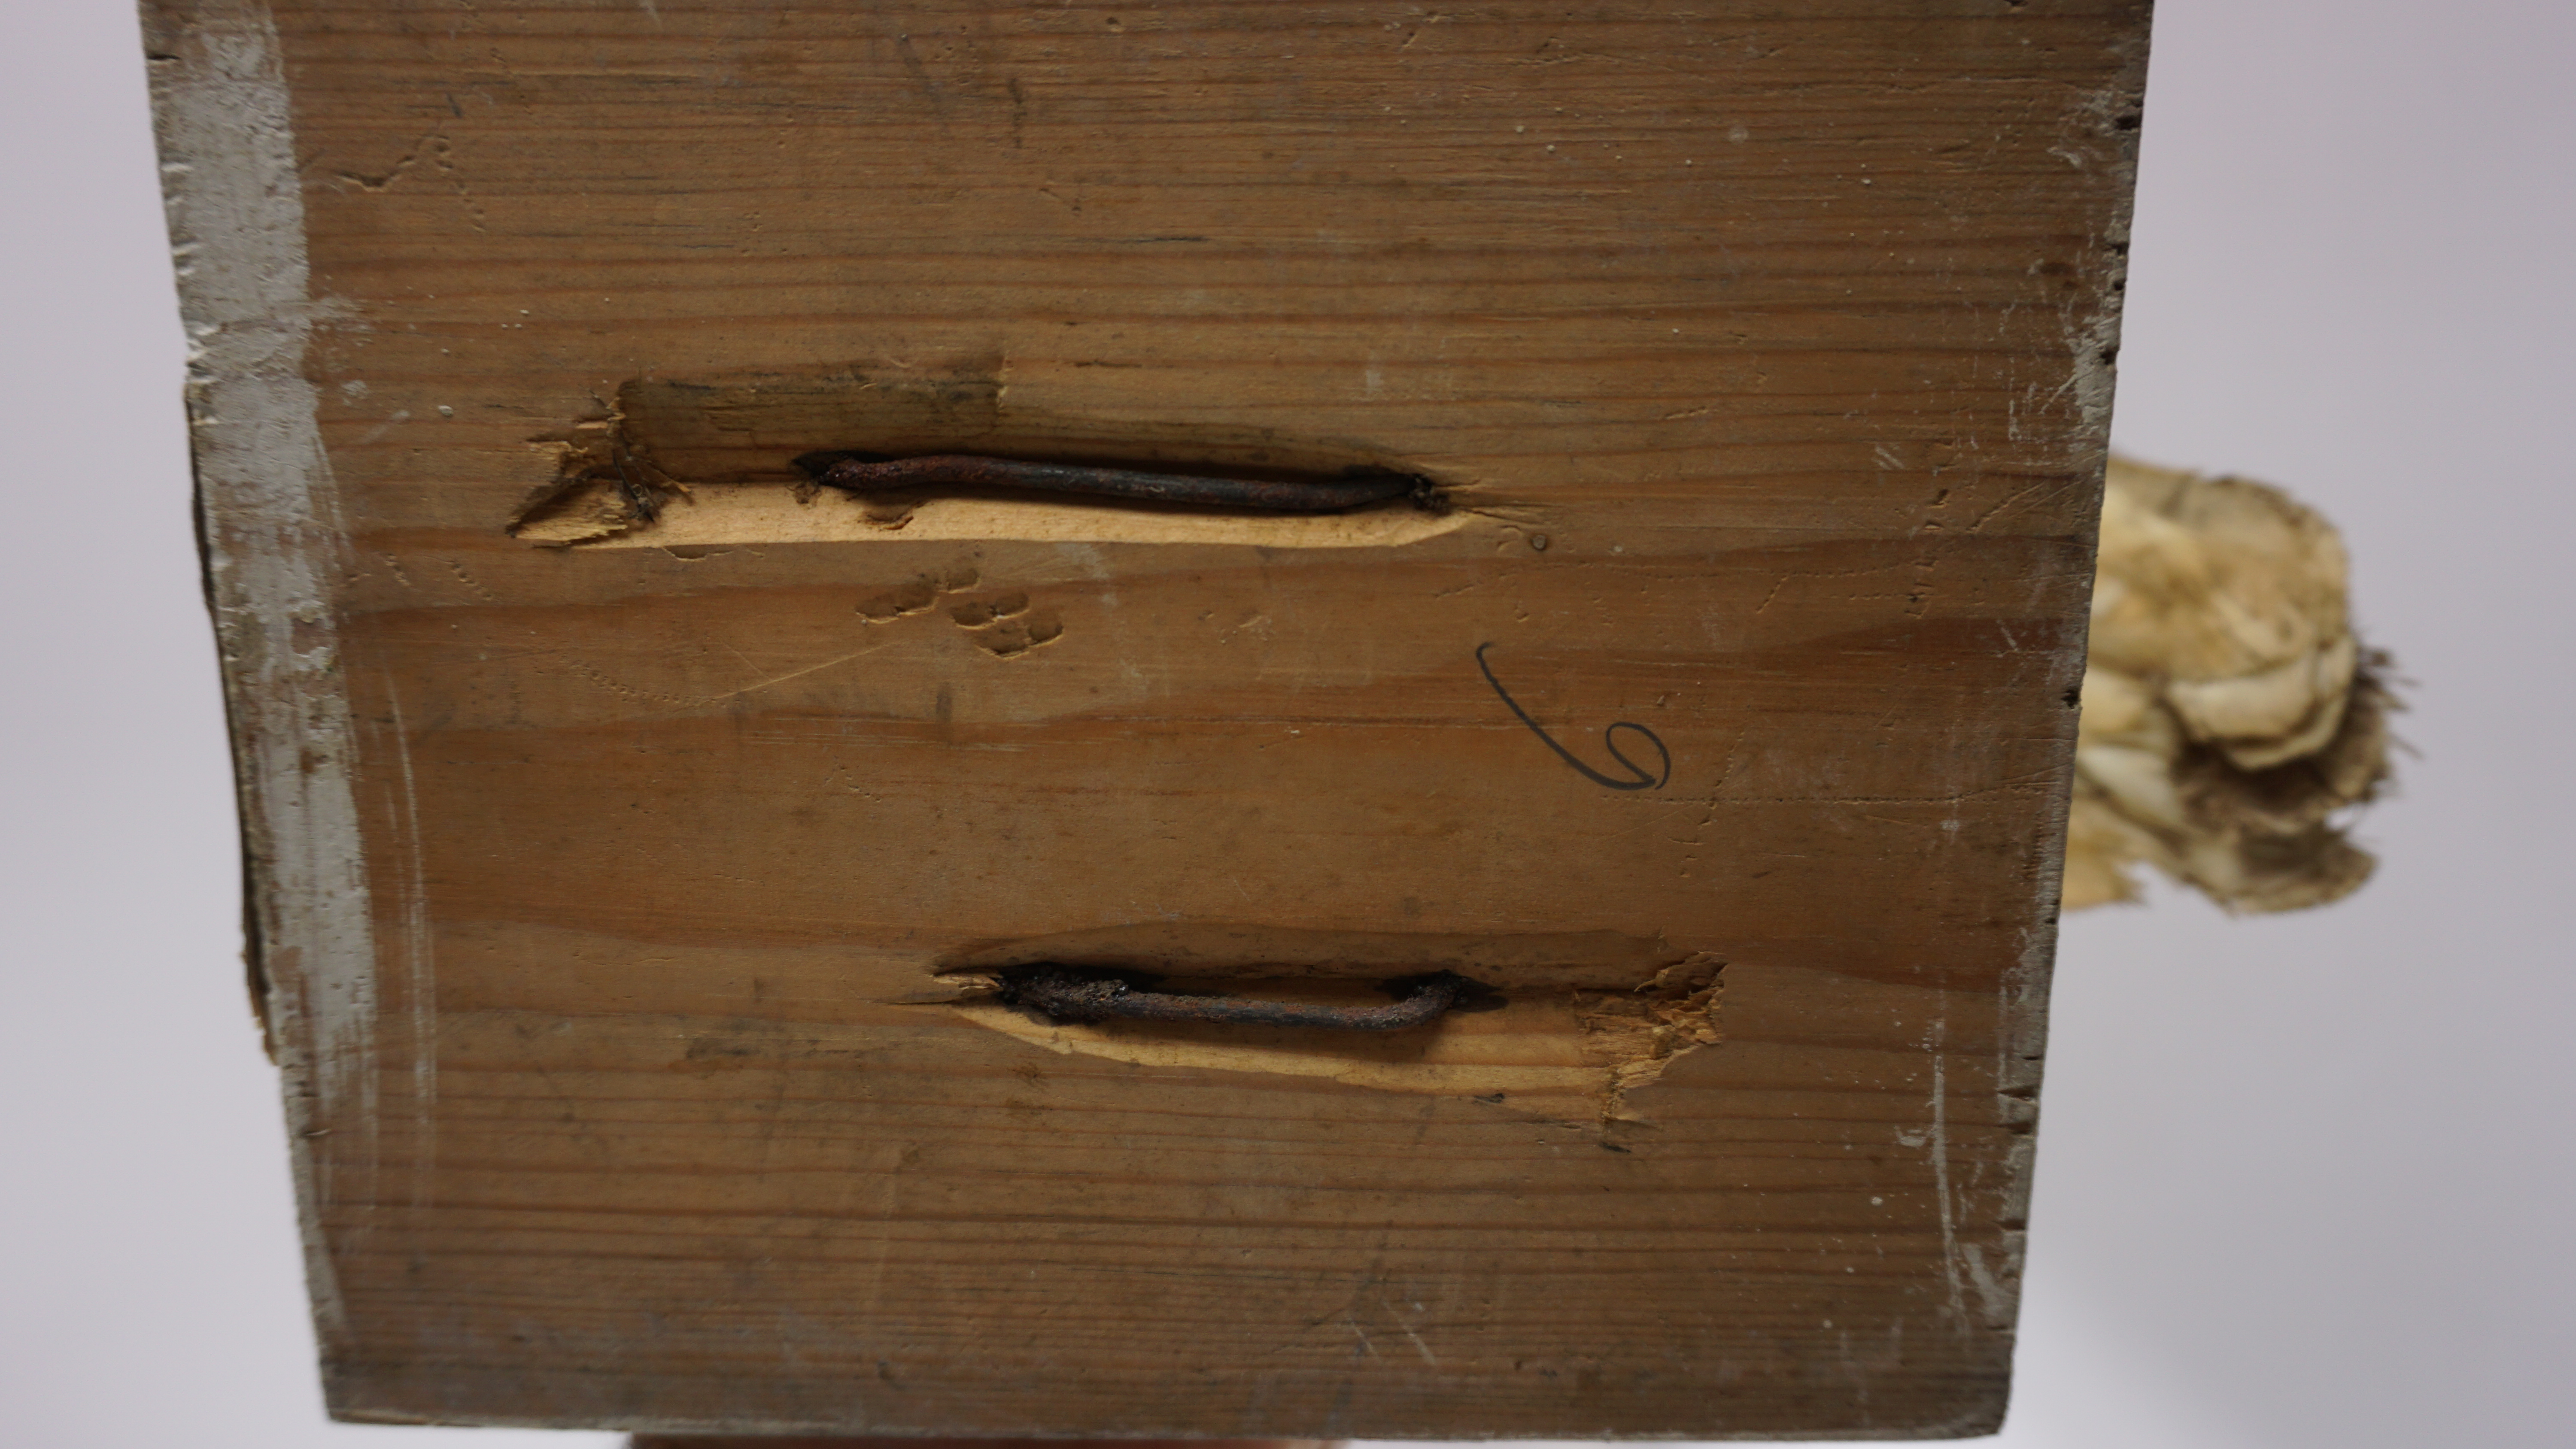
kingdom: Animalia
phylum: Chordata
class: Aves
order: Otidiformes
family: Otididae
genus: Tetrax
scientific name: Tetrax tetrax
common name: Little bustard
